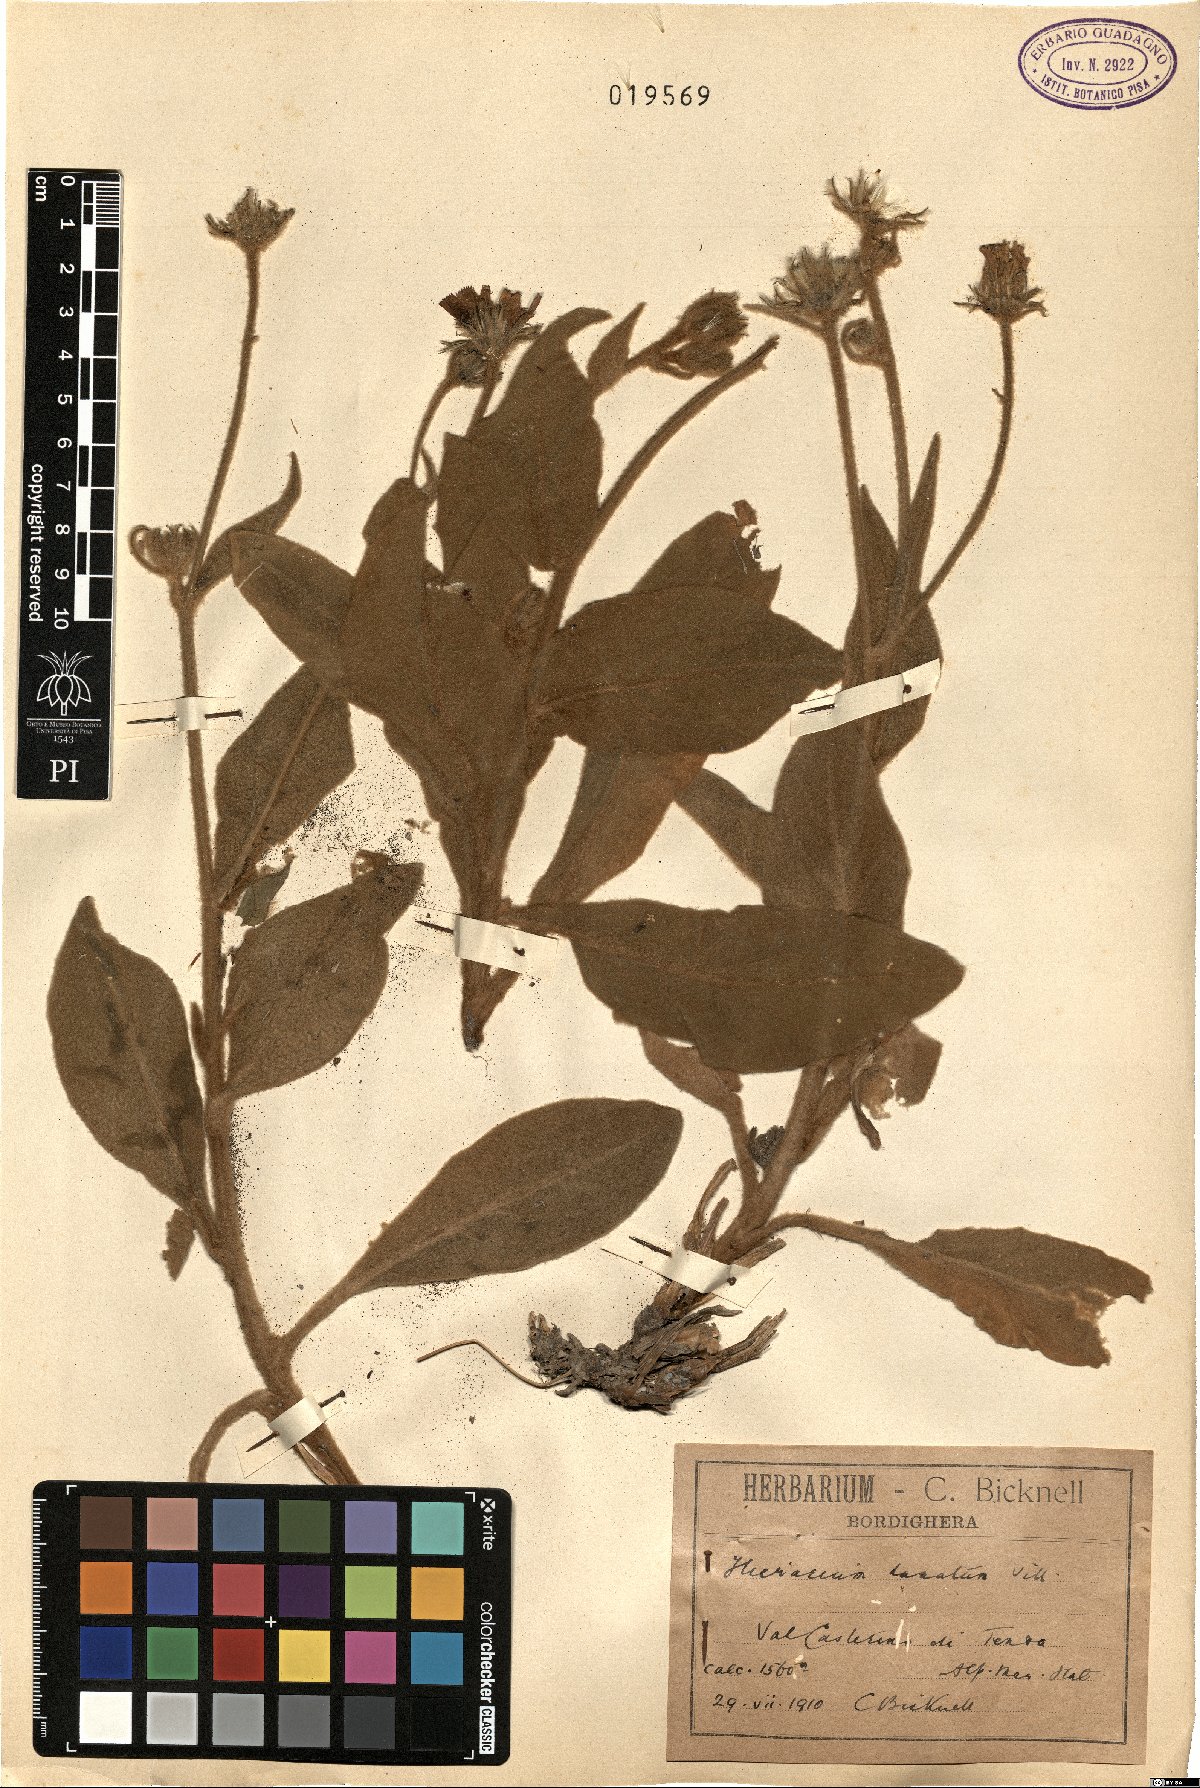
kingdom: Plantae
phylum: Tracheophyta
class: Magnoliopsida
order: Asterales
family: Asteraceae
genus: Hieracium
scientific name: Hieracium tomentosum
